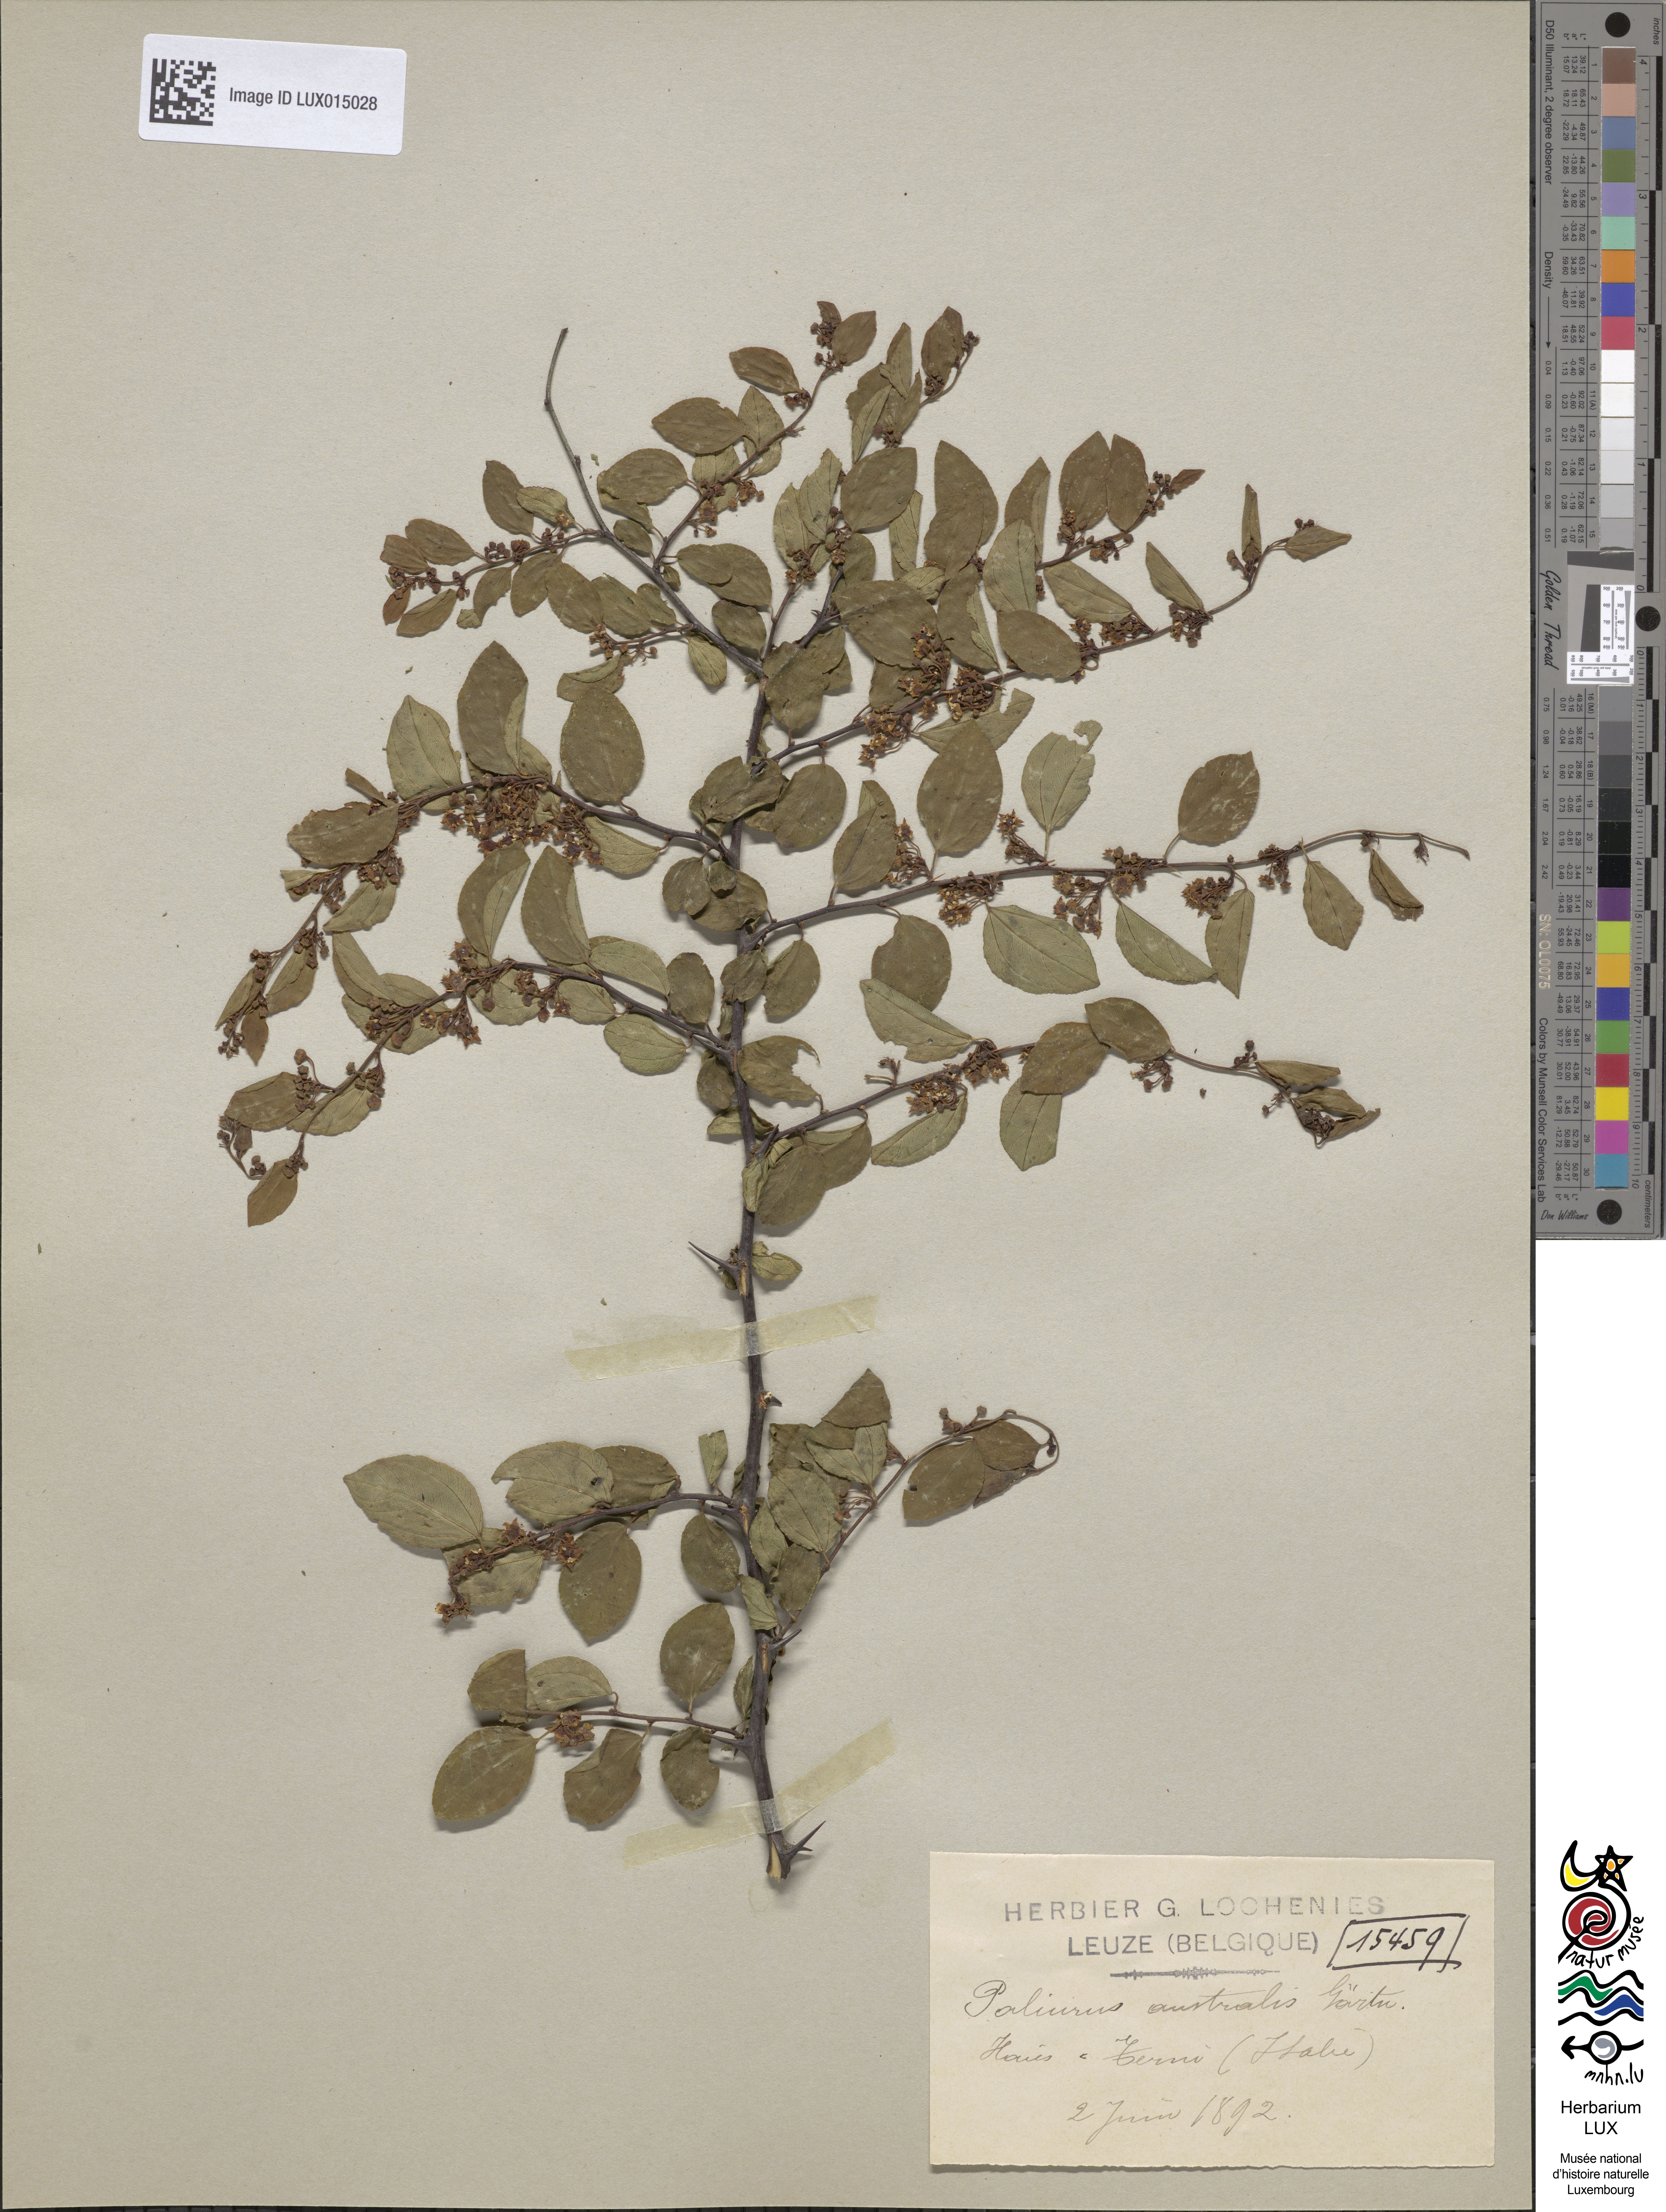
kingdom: Plantae
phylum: Tracheophyta
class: Magnoliopsida
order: Rosales
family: Rhamnaceae
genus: Paliurus
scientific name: Paliurus spina-christi
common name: Jeruselem thorn
